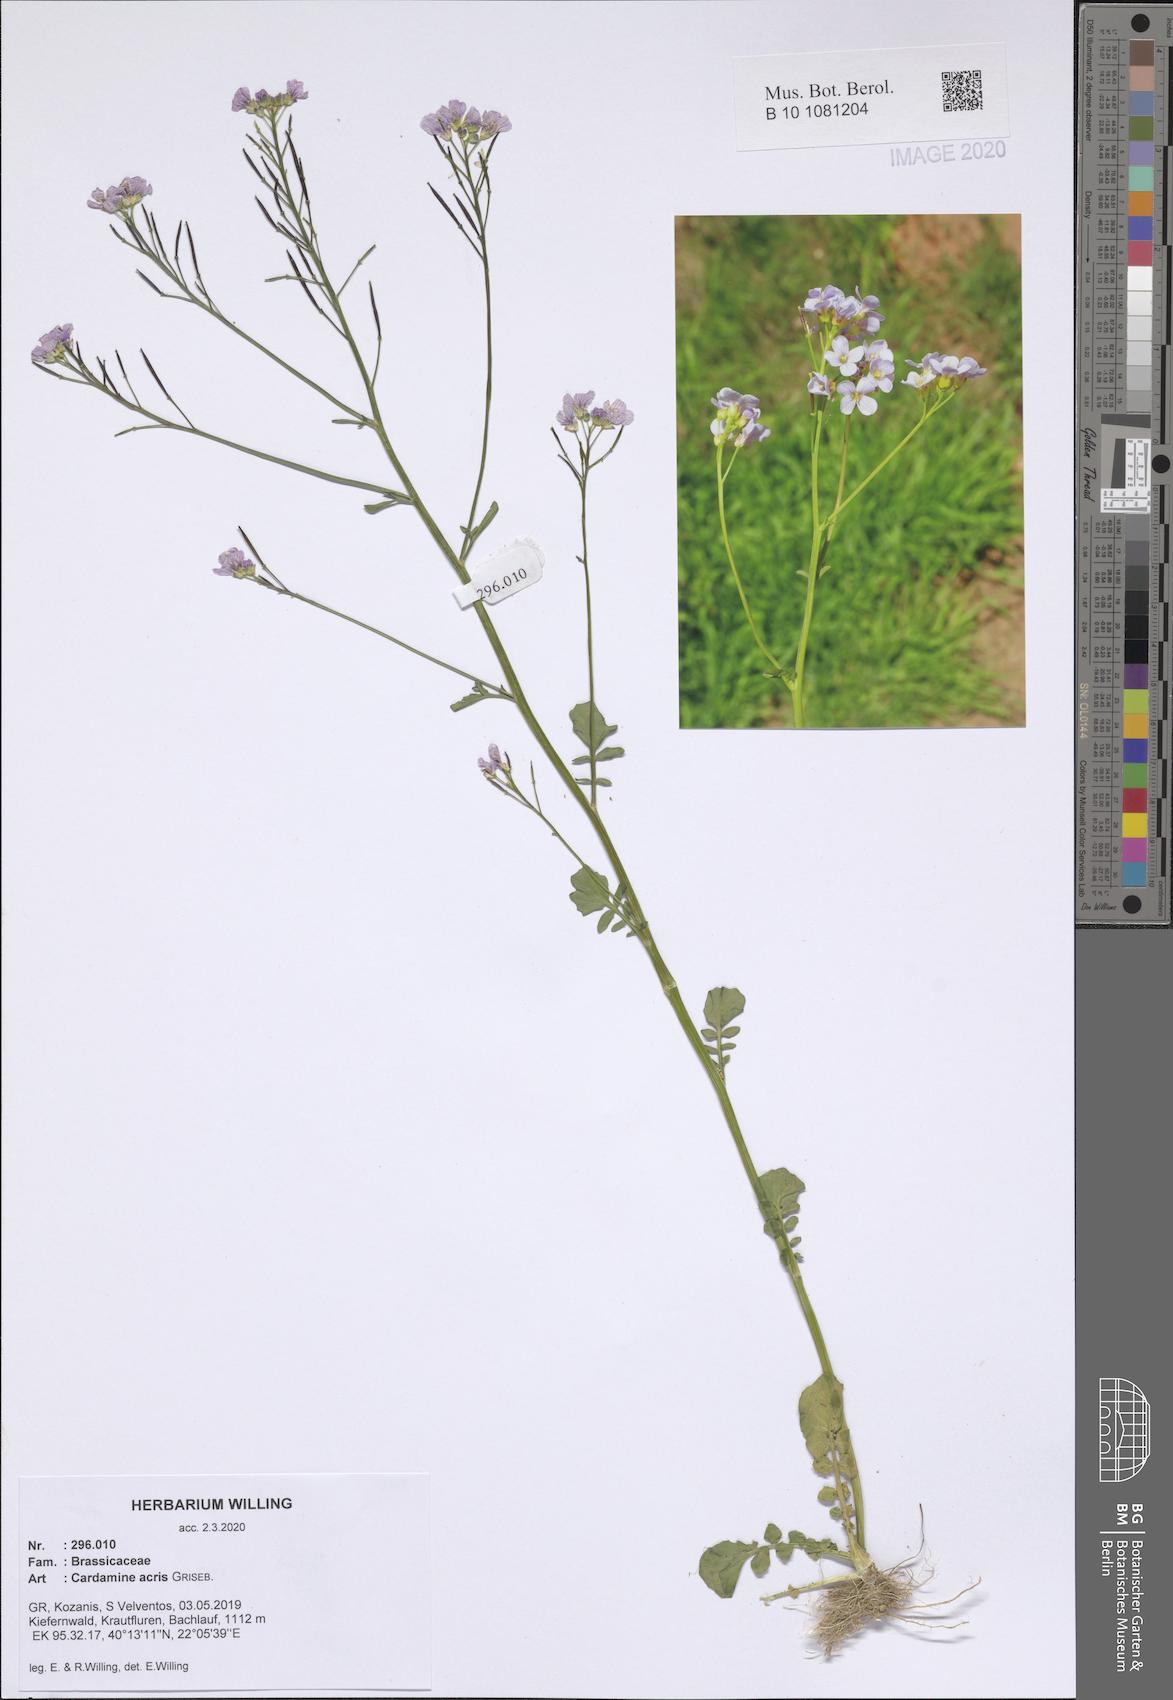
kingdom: Plantae
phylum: Tracheophyta
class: Magnoliopsida
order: Brassicales
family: Brassicaceae
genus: Cardamine
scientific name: Cardamine acris
